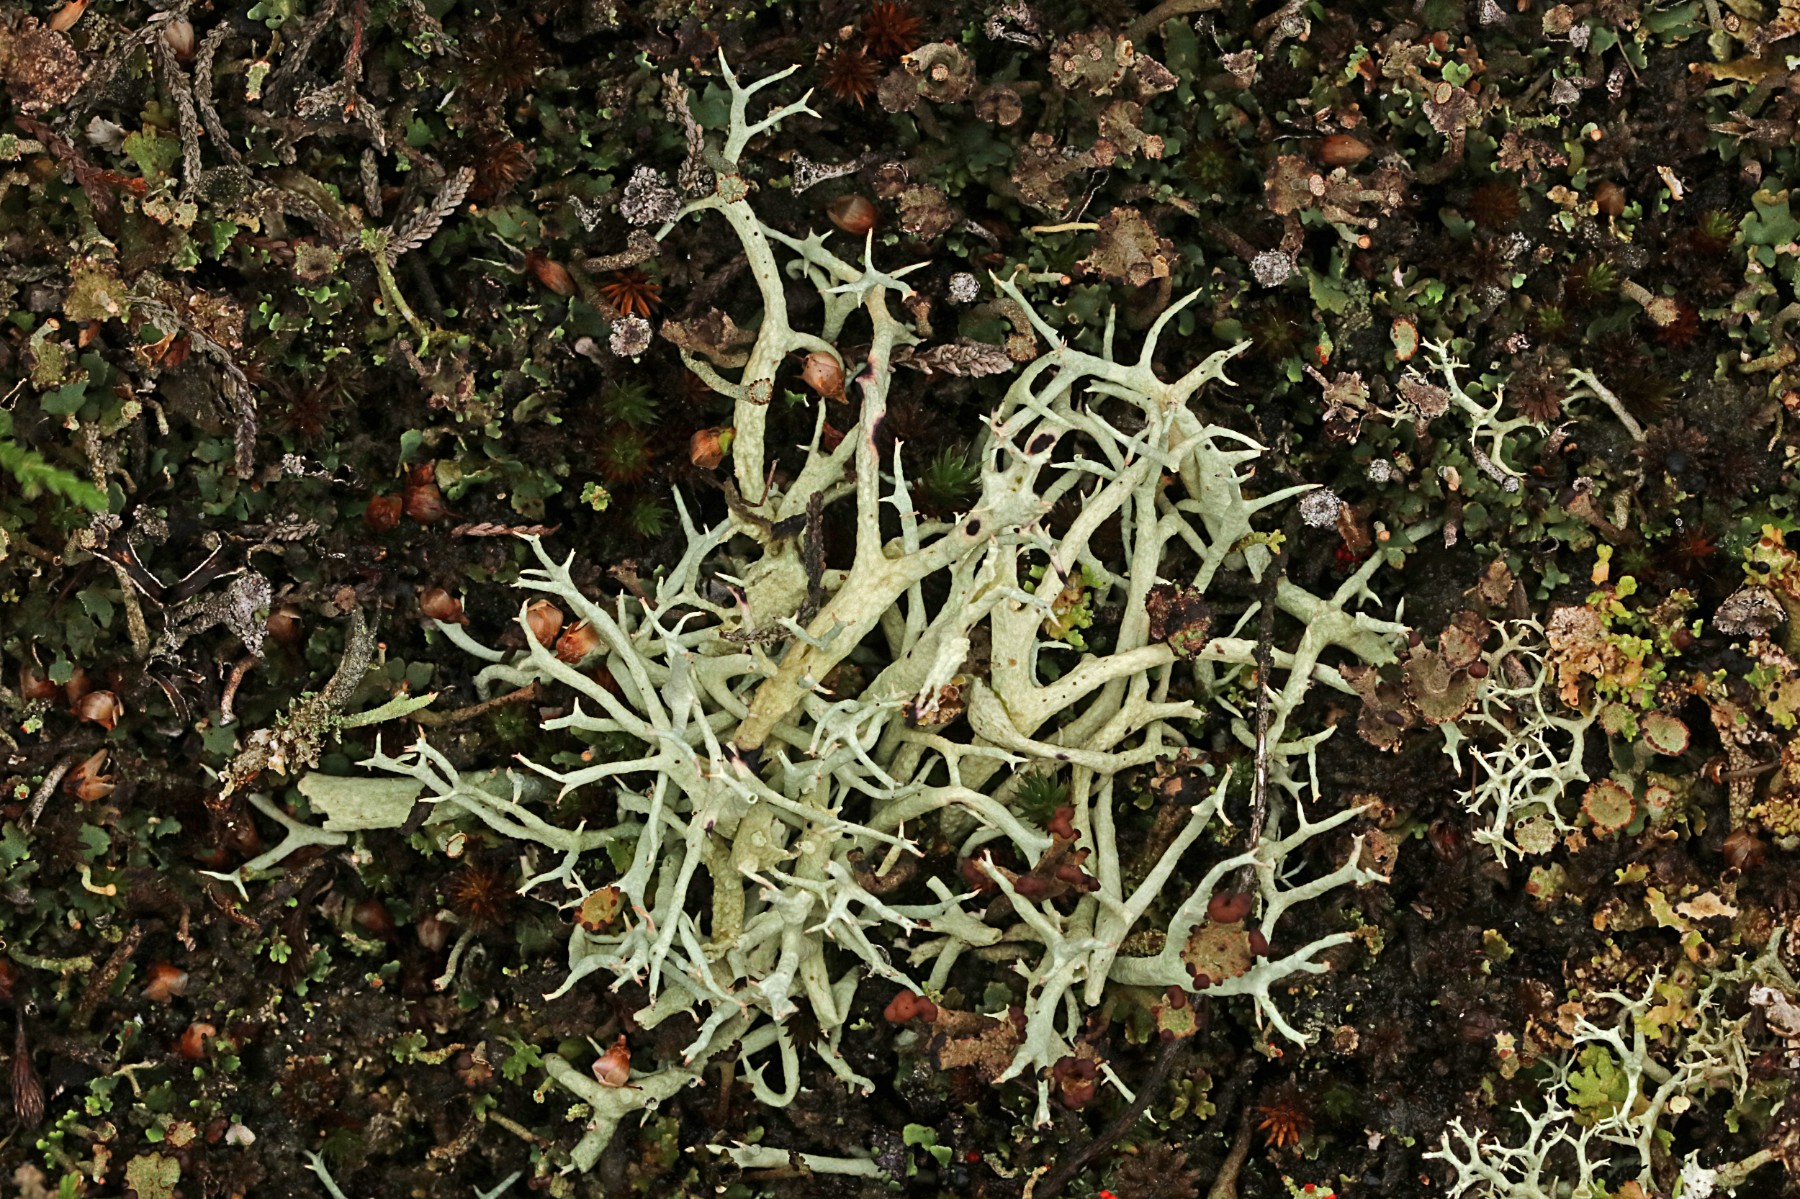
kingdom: Fungi
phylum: Ascomycota
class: Lecanoromycetes
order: Lecanorales
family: Cladoniaceae
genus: Cladonia
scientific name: Cladonia zopfii
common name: klit-bægerlav
